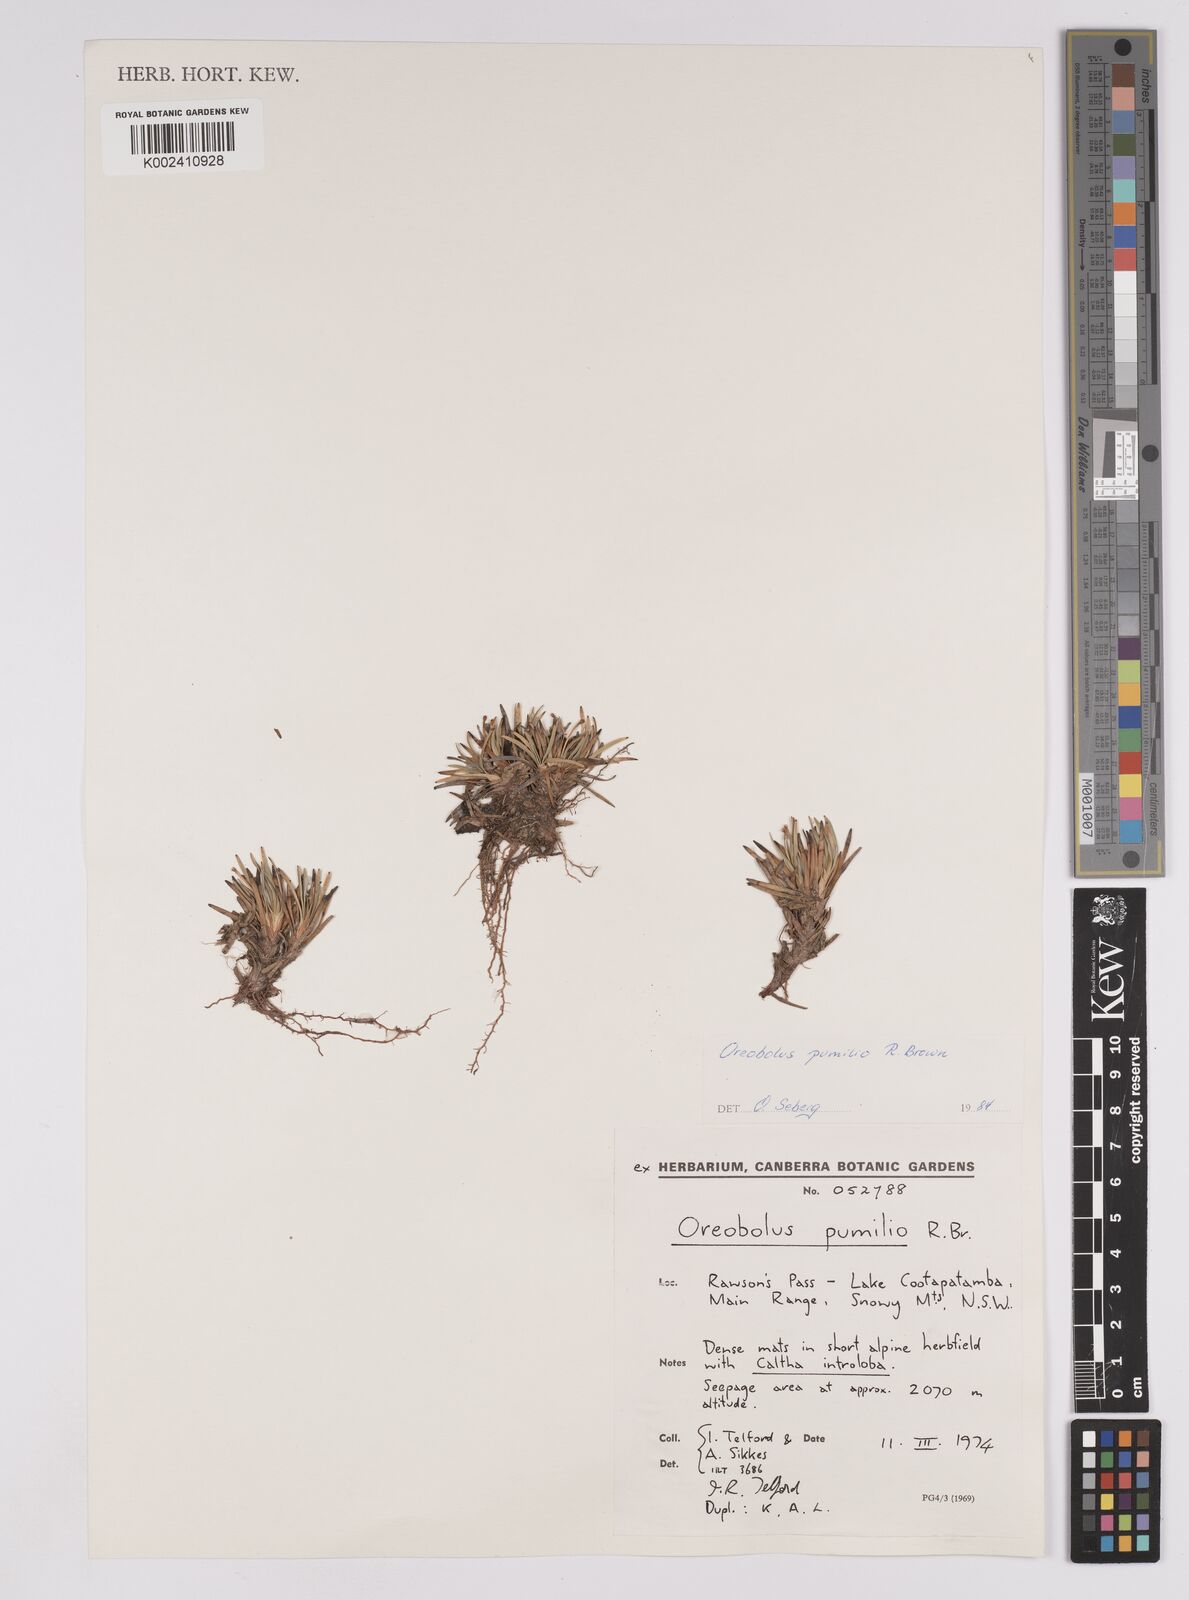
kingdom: Plantae
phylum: Tracheophyta
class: Liliopsida
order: Poales
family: Cyperaceae
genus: Oreobolus
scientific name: Oreobolus pumilio
